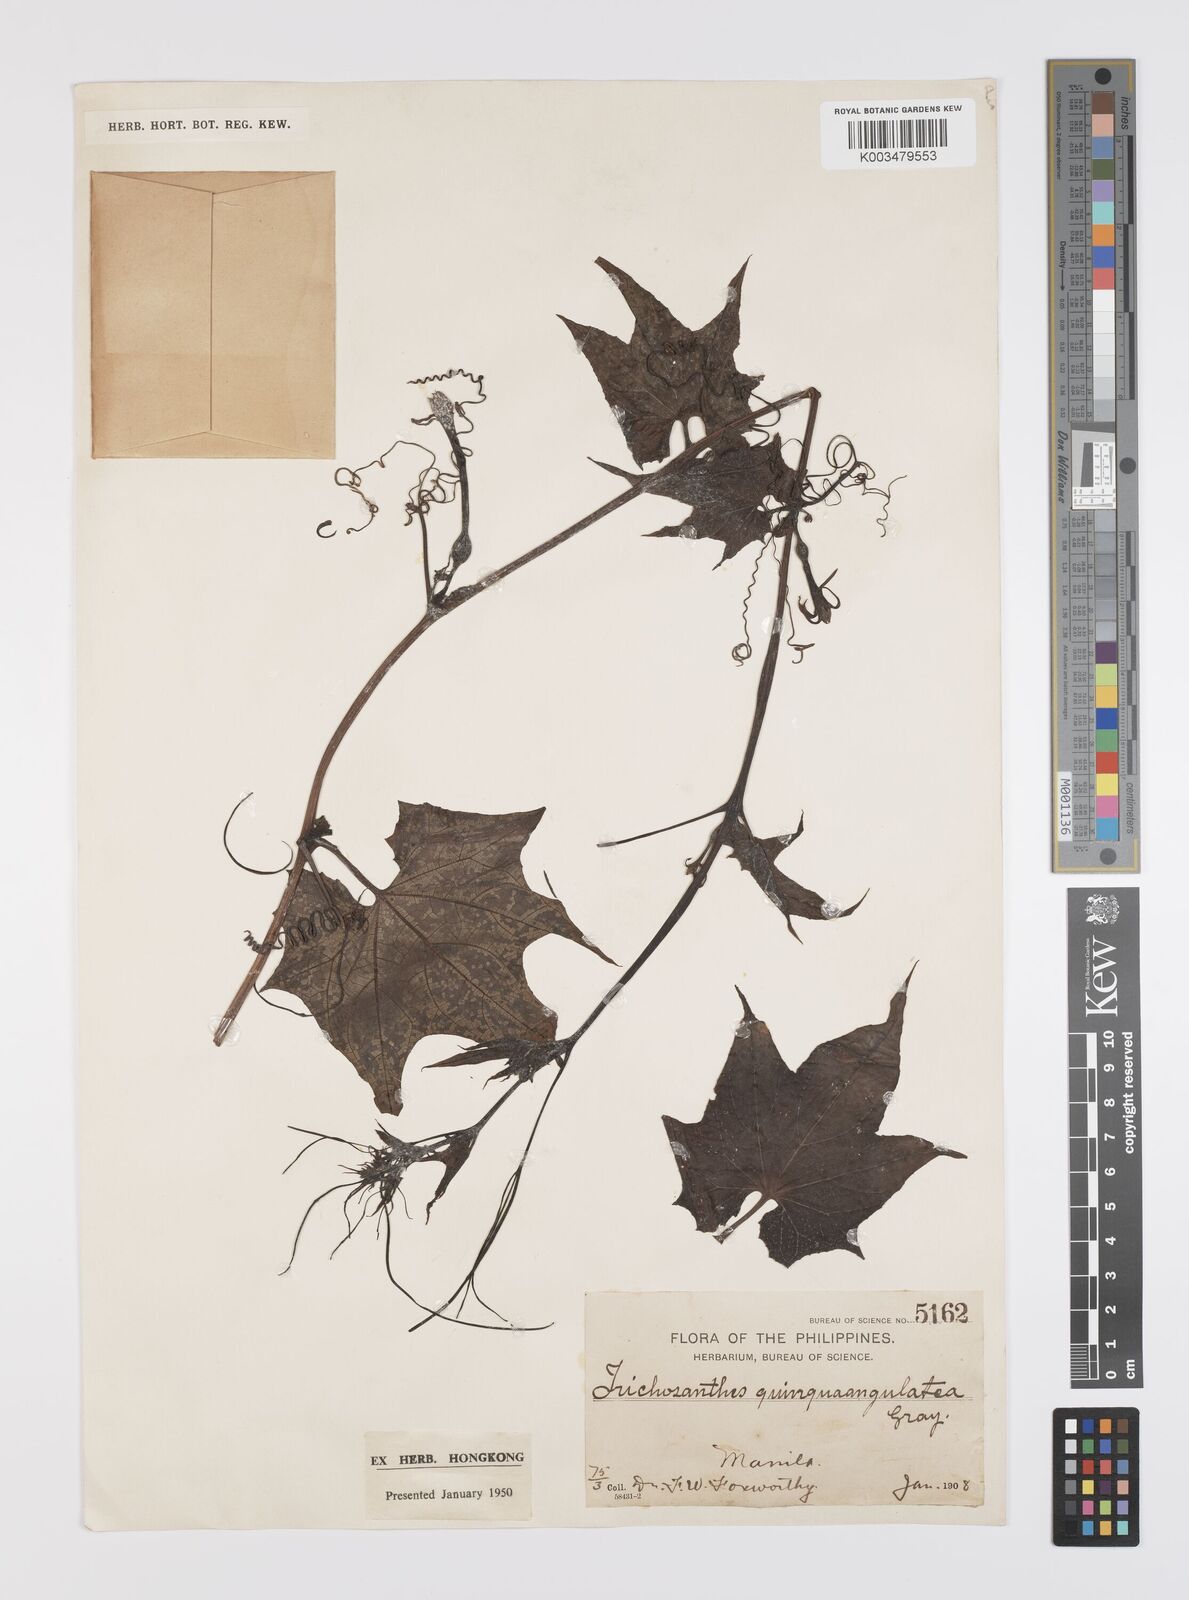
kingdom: Plantae
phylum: Tracheophyta
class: Magnoliopsida
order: Cucurbitales
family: Cucurbitaceae
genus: Trichosanthes
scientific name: Trichosanthes tricuspidata
